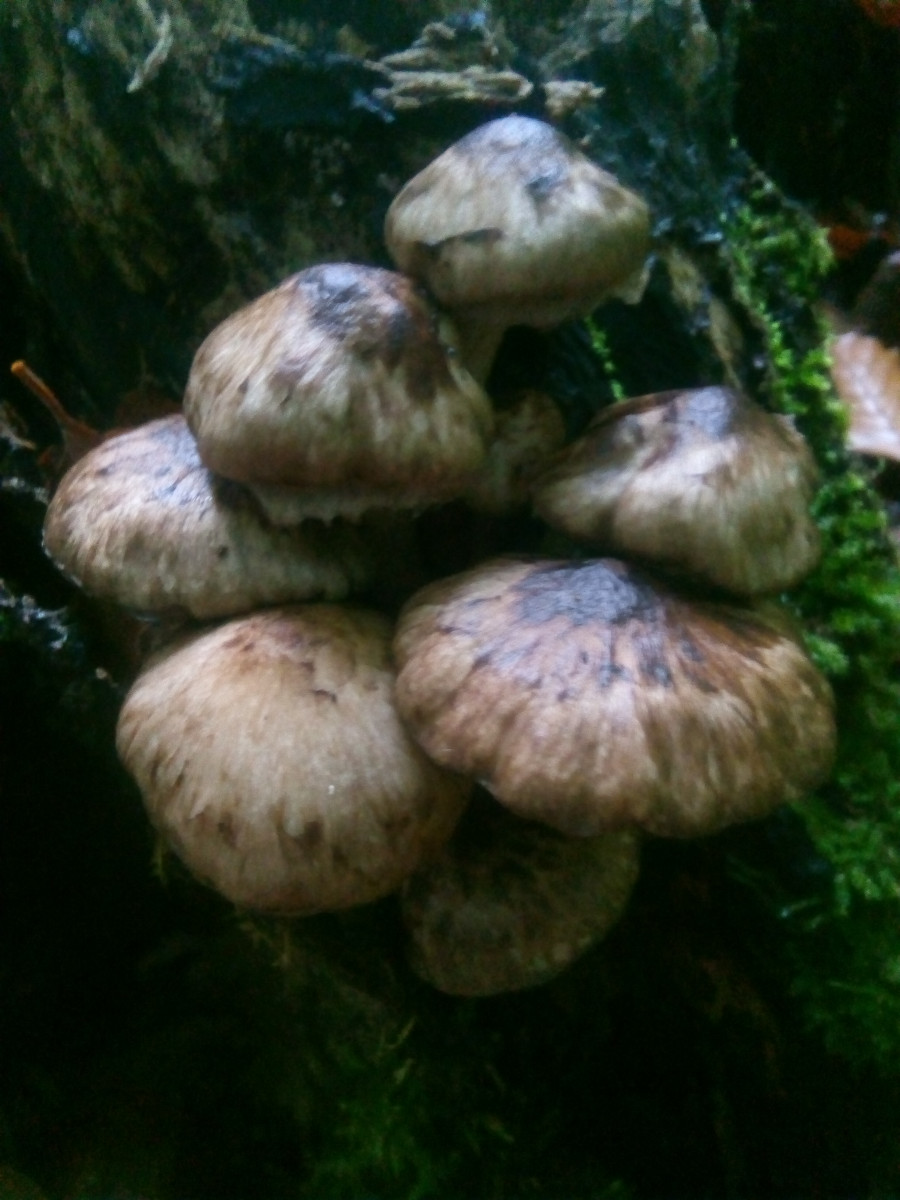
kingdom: Fungi
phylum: Basidiomycota
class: Agaricomycetes
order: Agaricales
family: Psathyrellaceae
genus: Psathyrella
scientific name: Psathyrella maculata
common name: sortskællet mørkhat
